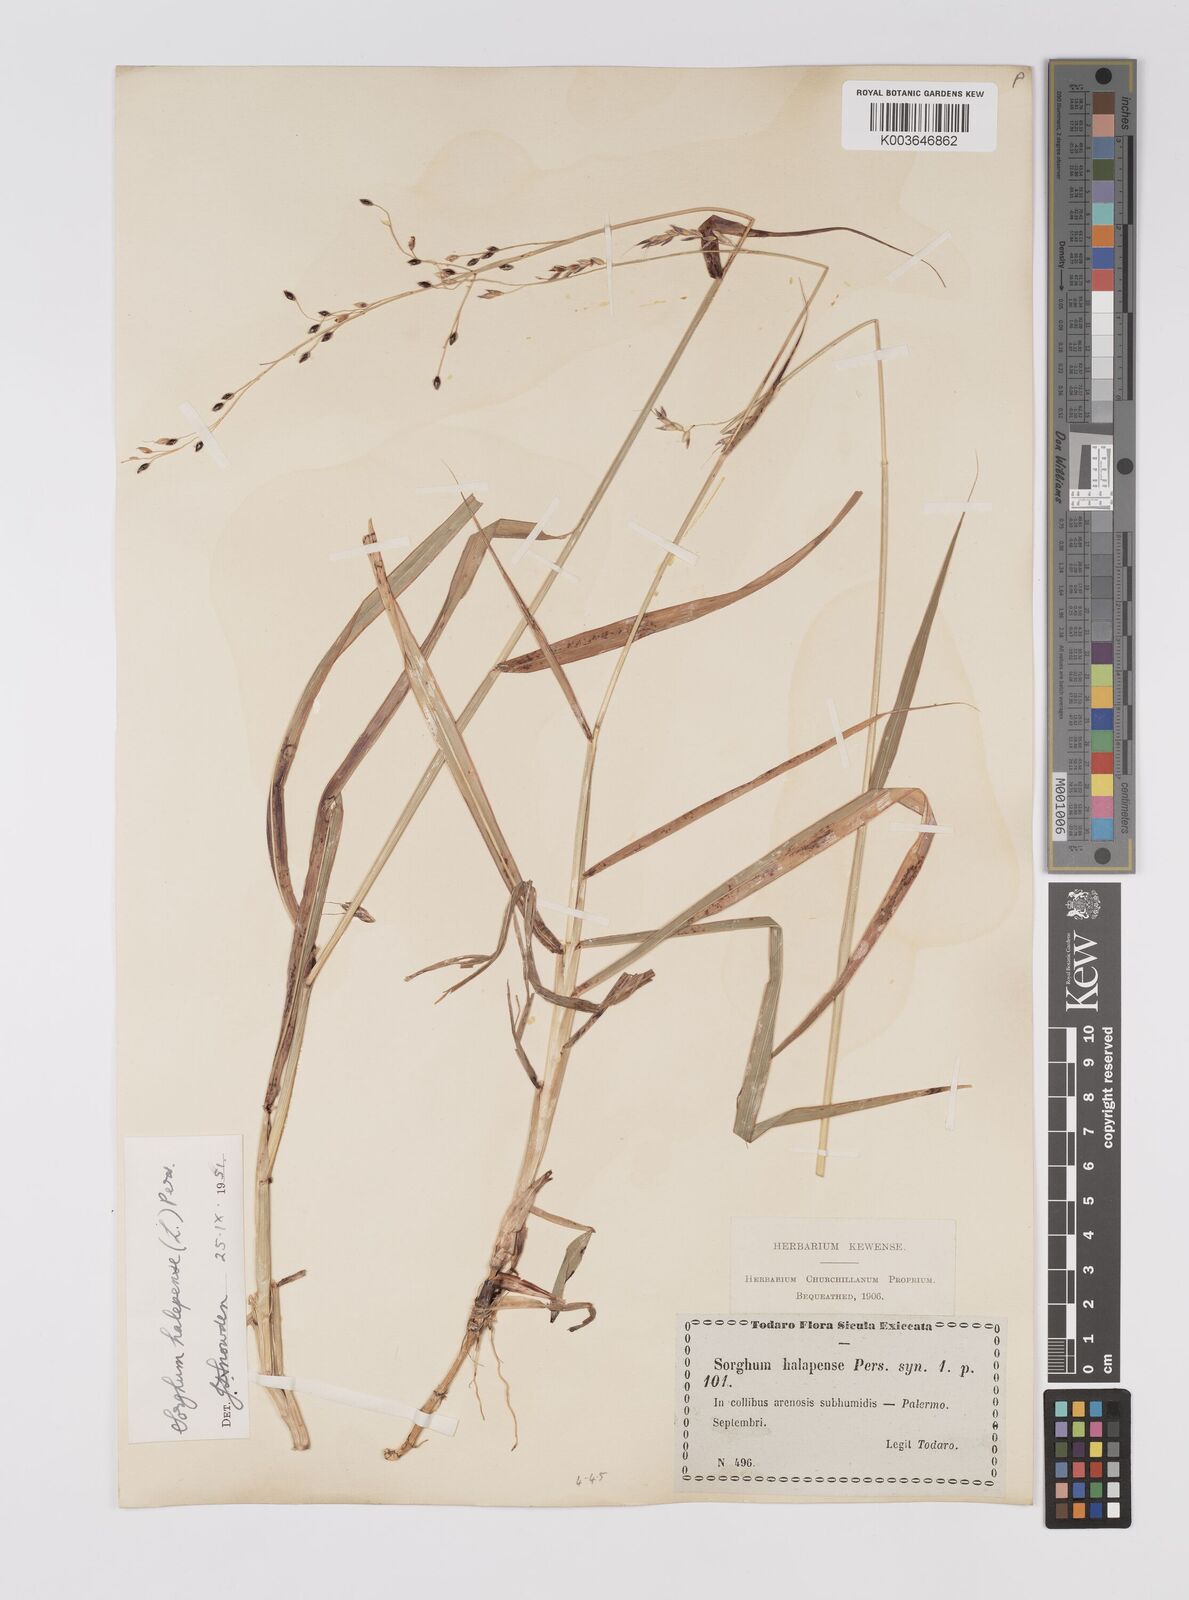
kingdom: Plantae
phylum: Tracheophyta
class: Liliopsida
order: Poales
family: Poaceae
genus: Sorghum
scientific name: Sorghum halepense
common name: Johnson-grass
